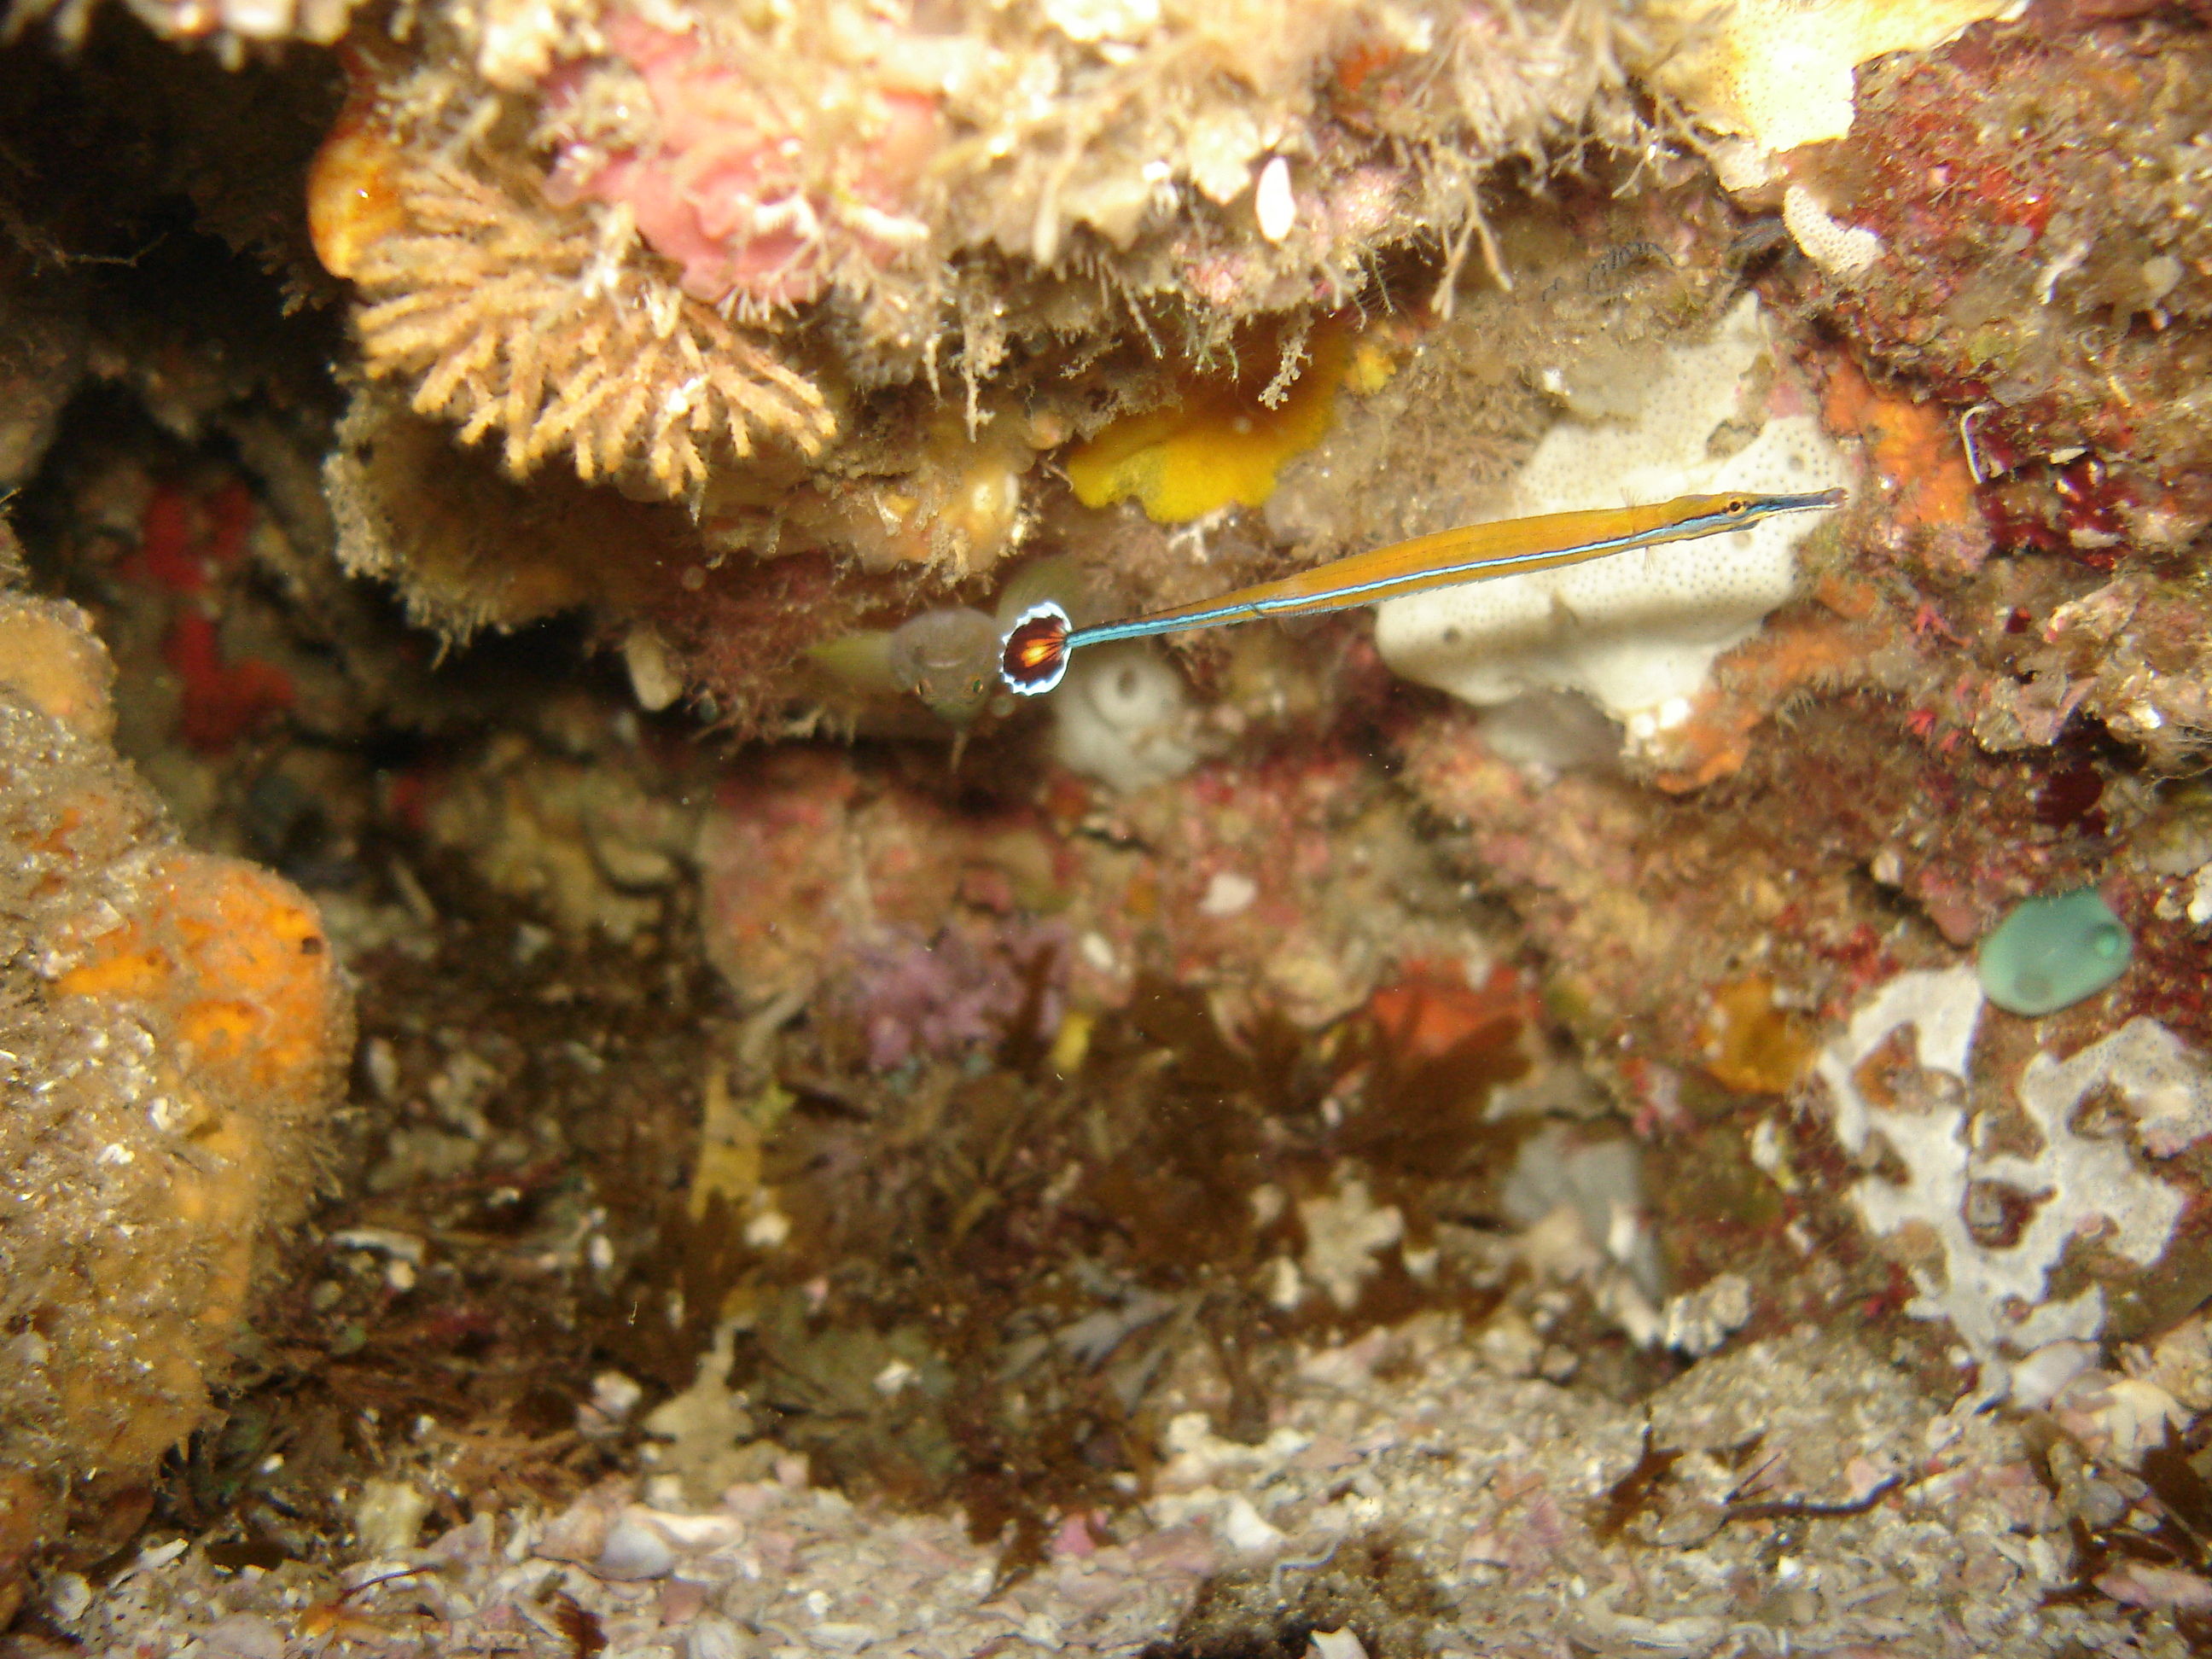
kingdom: Animalia
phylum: Chordata
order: Syngnathiformes
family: Syngnathidae
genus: Doryrhamphus
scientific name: Doryrhamphus bicarinatus
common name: Narrowstripe pipefish
